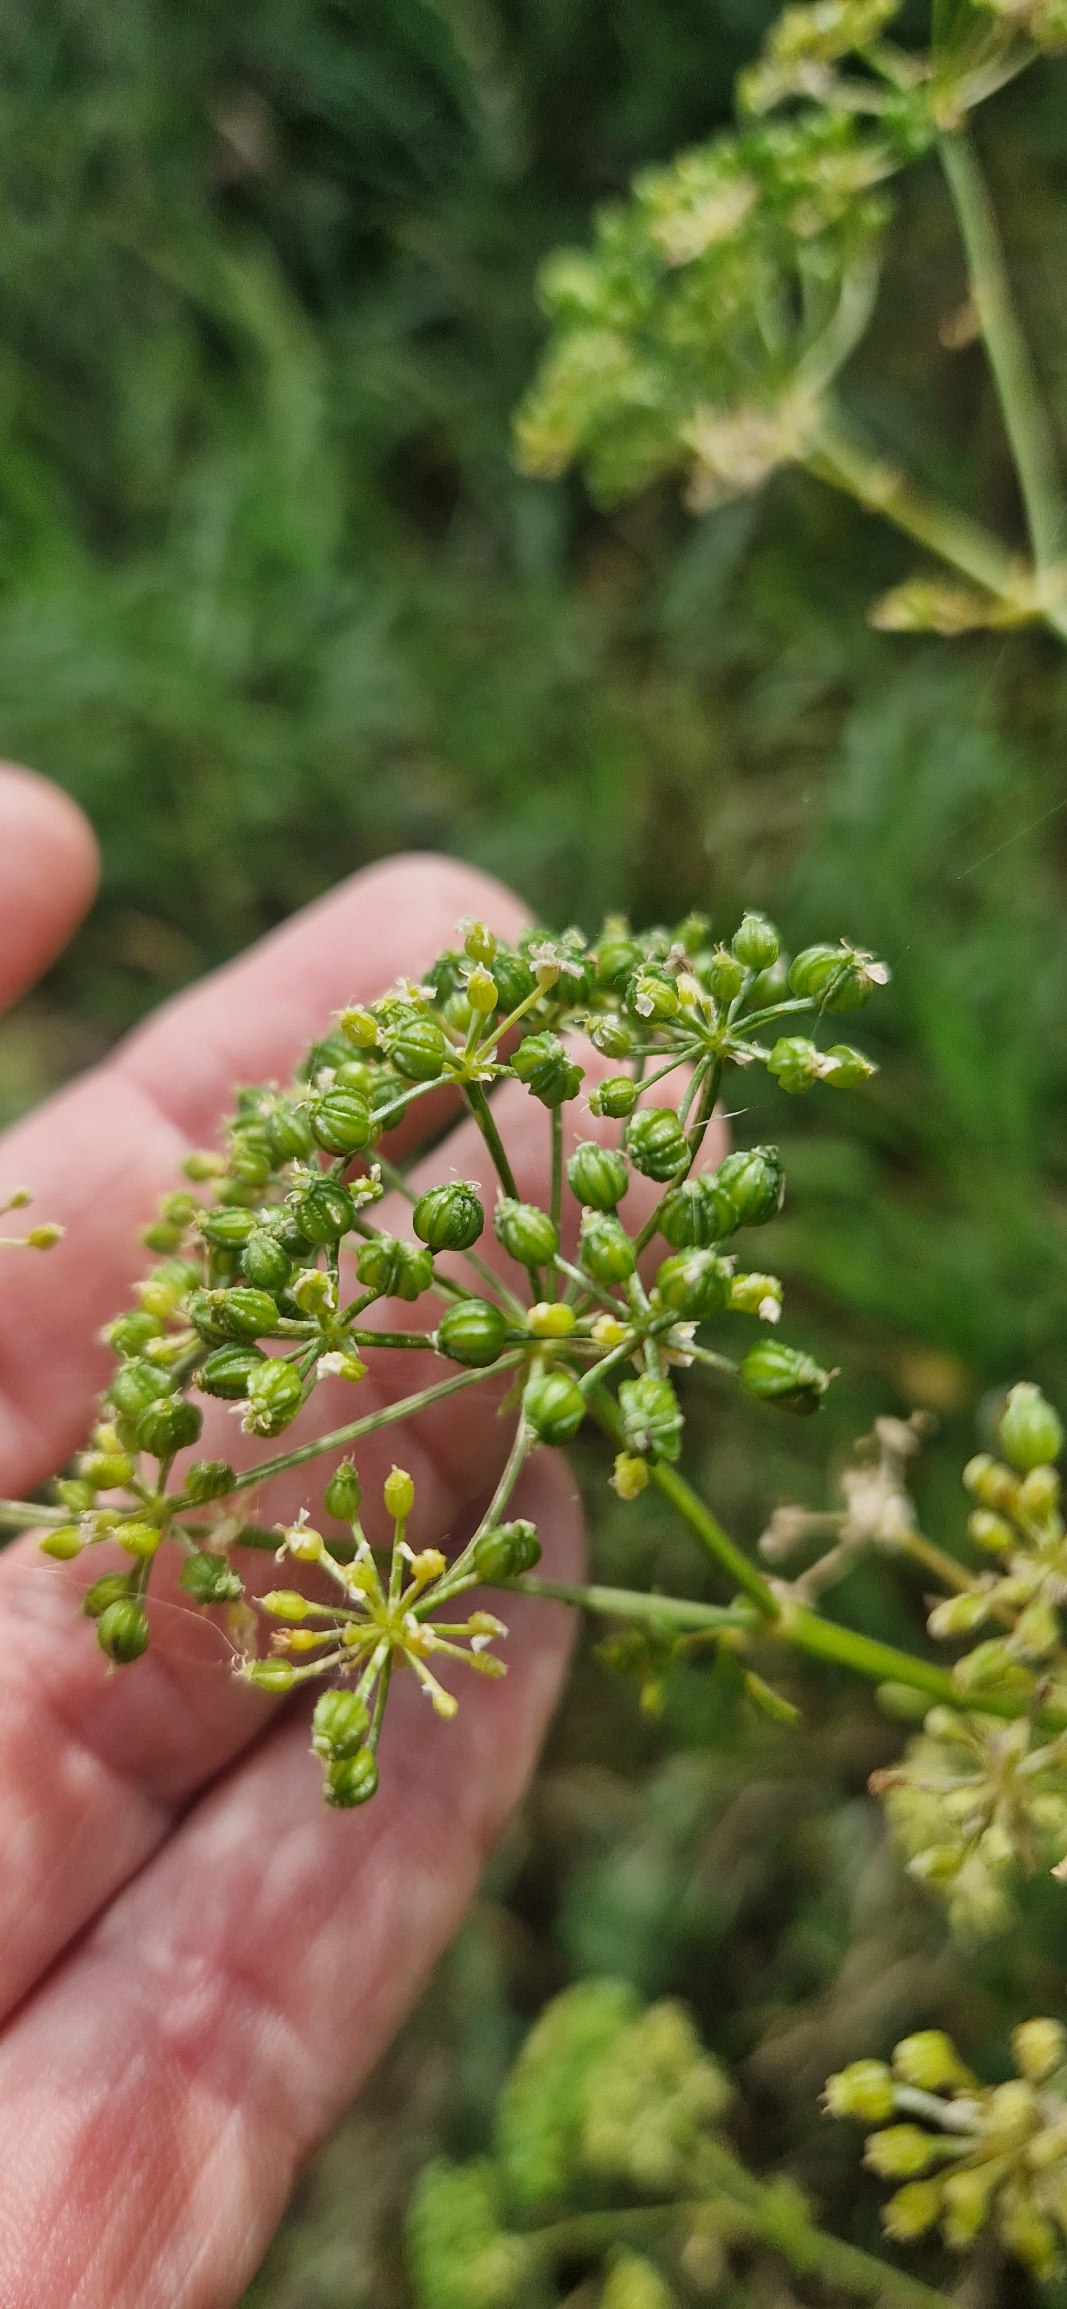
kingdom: Plantae
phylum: Tracheophyta
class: Magnoliopsida
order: Apiales
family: Apiaceae
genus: Conium
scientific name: Conium maculatum
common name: Skarntyde
